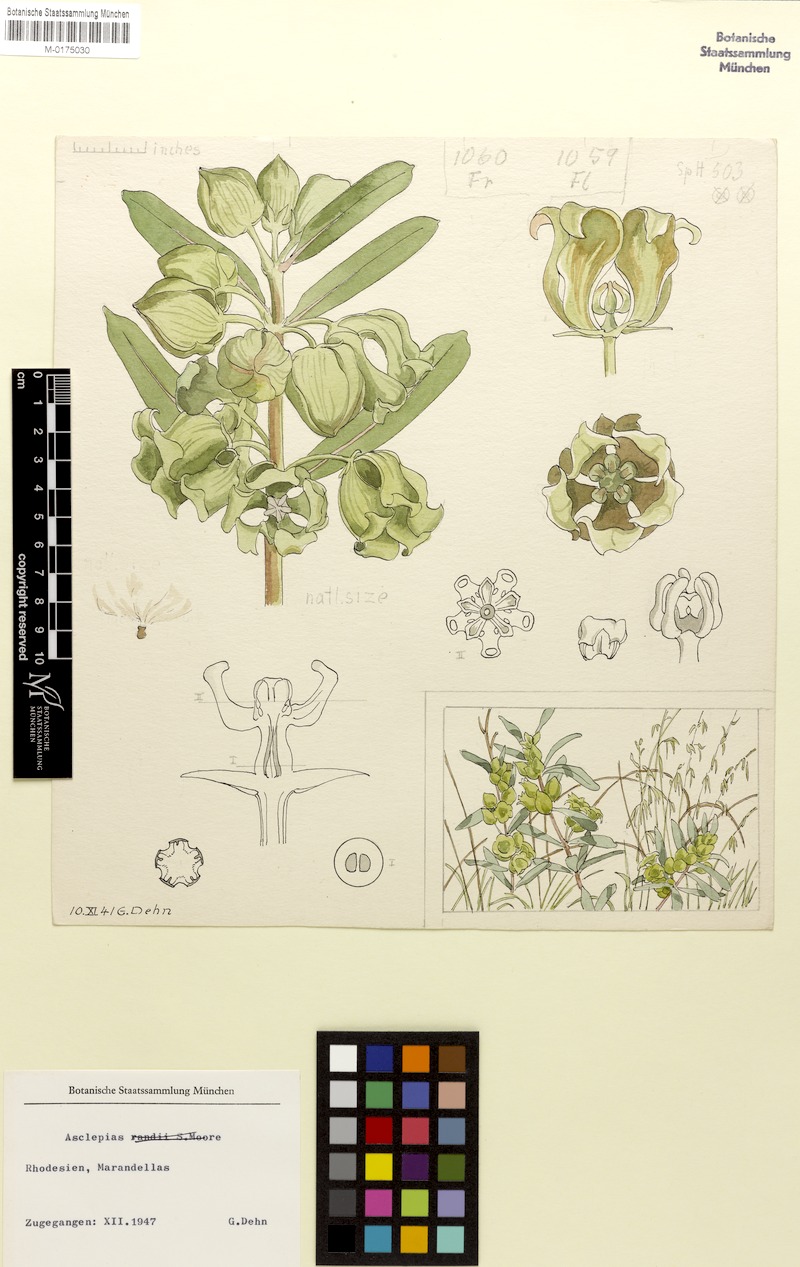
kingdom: Plantae
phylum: Tracheophyta
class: Magnoliopsida
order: Gentianales
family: Apocynaceae
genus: Asclepias
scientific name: Asclepias
